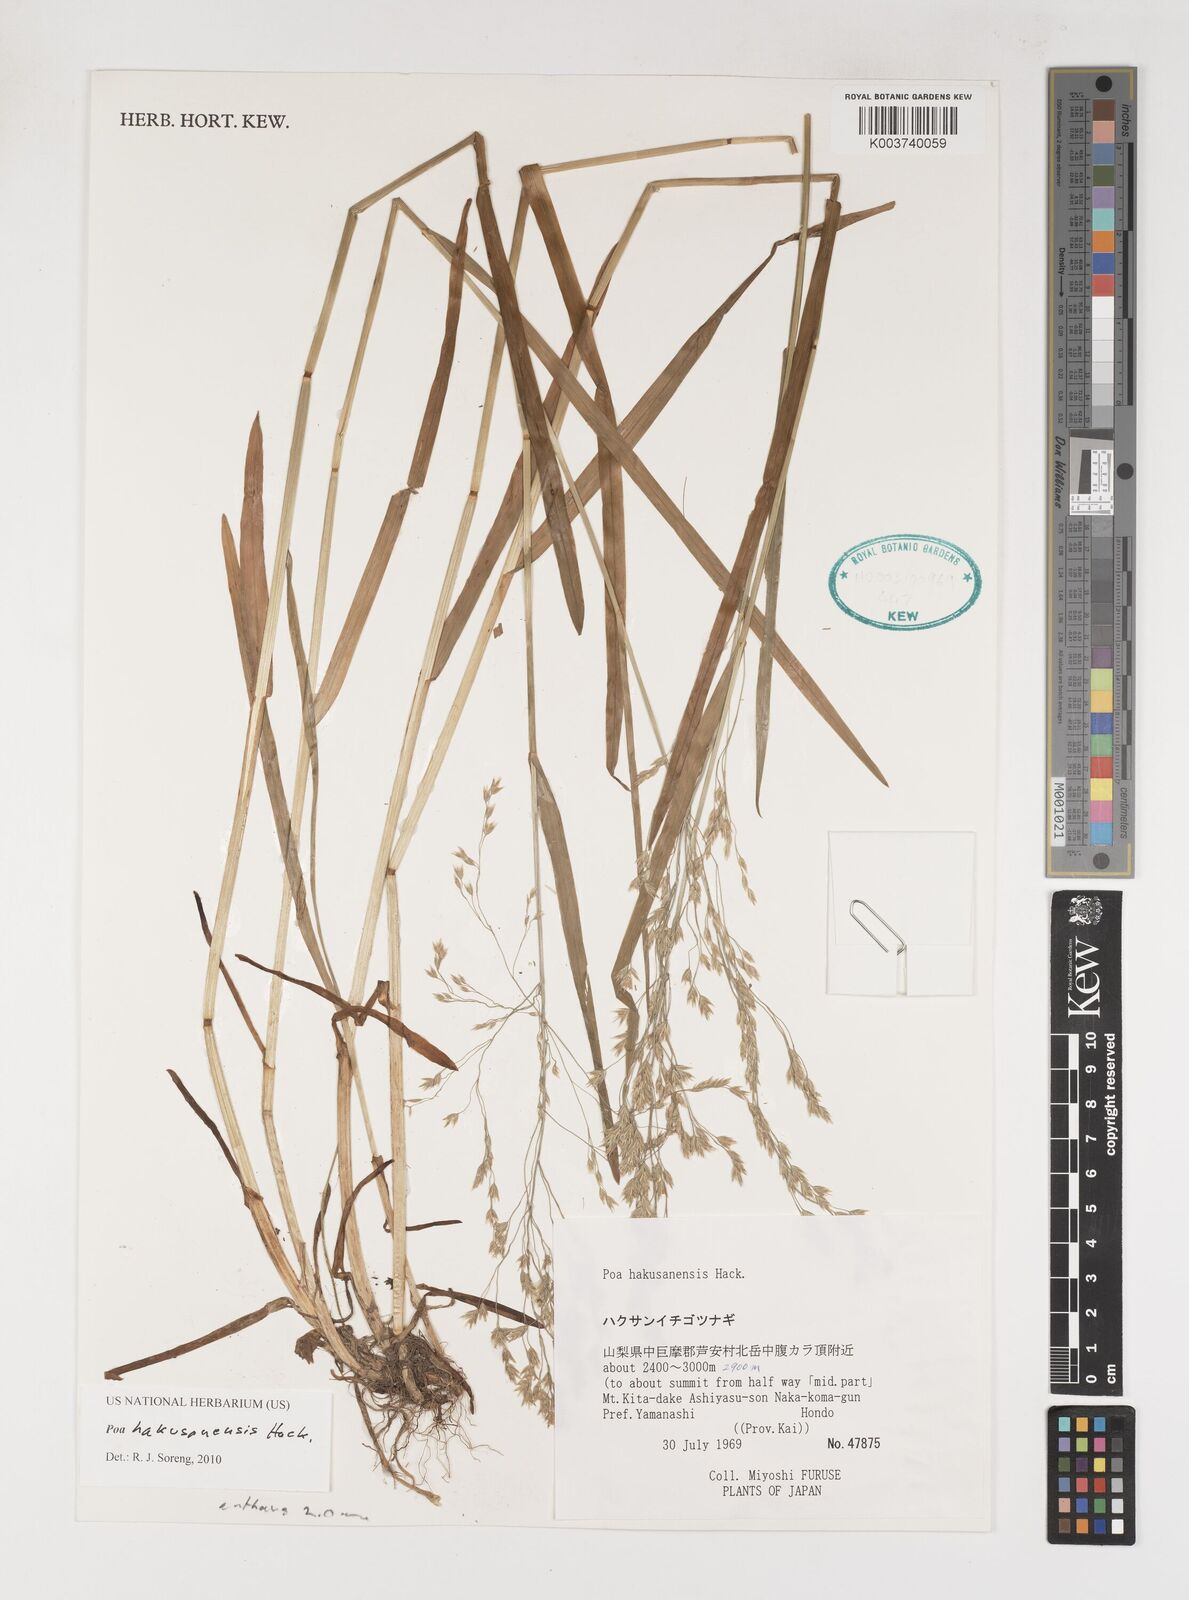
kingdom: Plantae
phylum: Tracheophyta
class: Liliopsida
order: Poales
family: Poaceae
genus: Poa
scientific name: Poa hakusanensis
